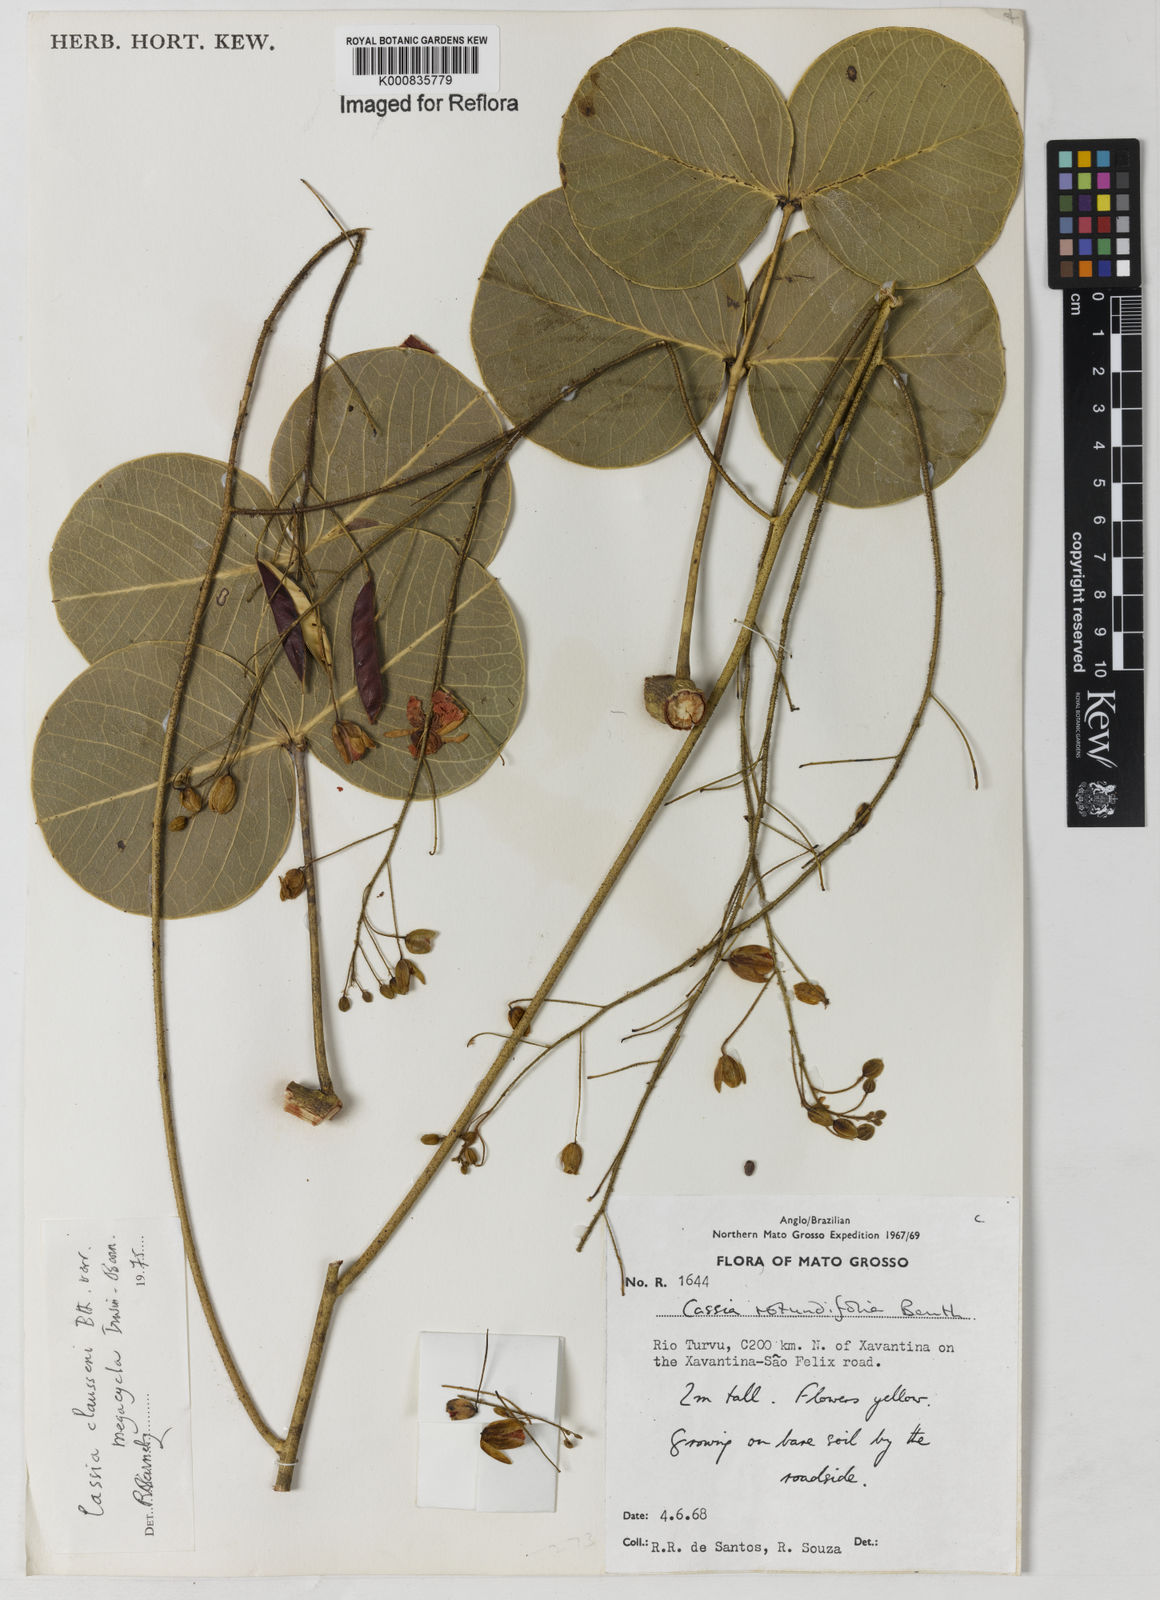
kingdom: Plantae
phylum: Tracheophyta
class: Magnoliopsida
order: Fabales
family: Fabaceae
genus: Chamaecrista
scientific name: Chamaecrista megacycla
